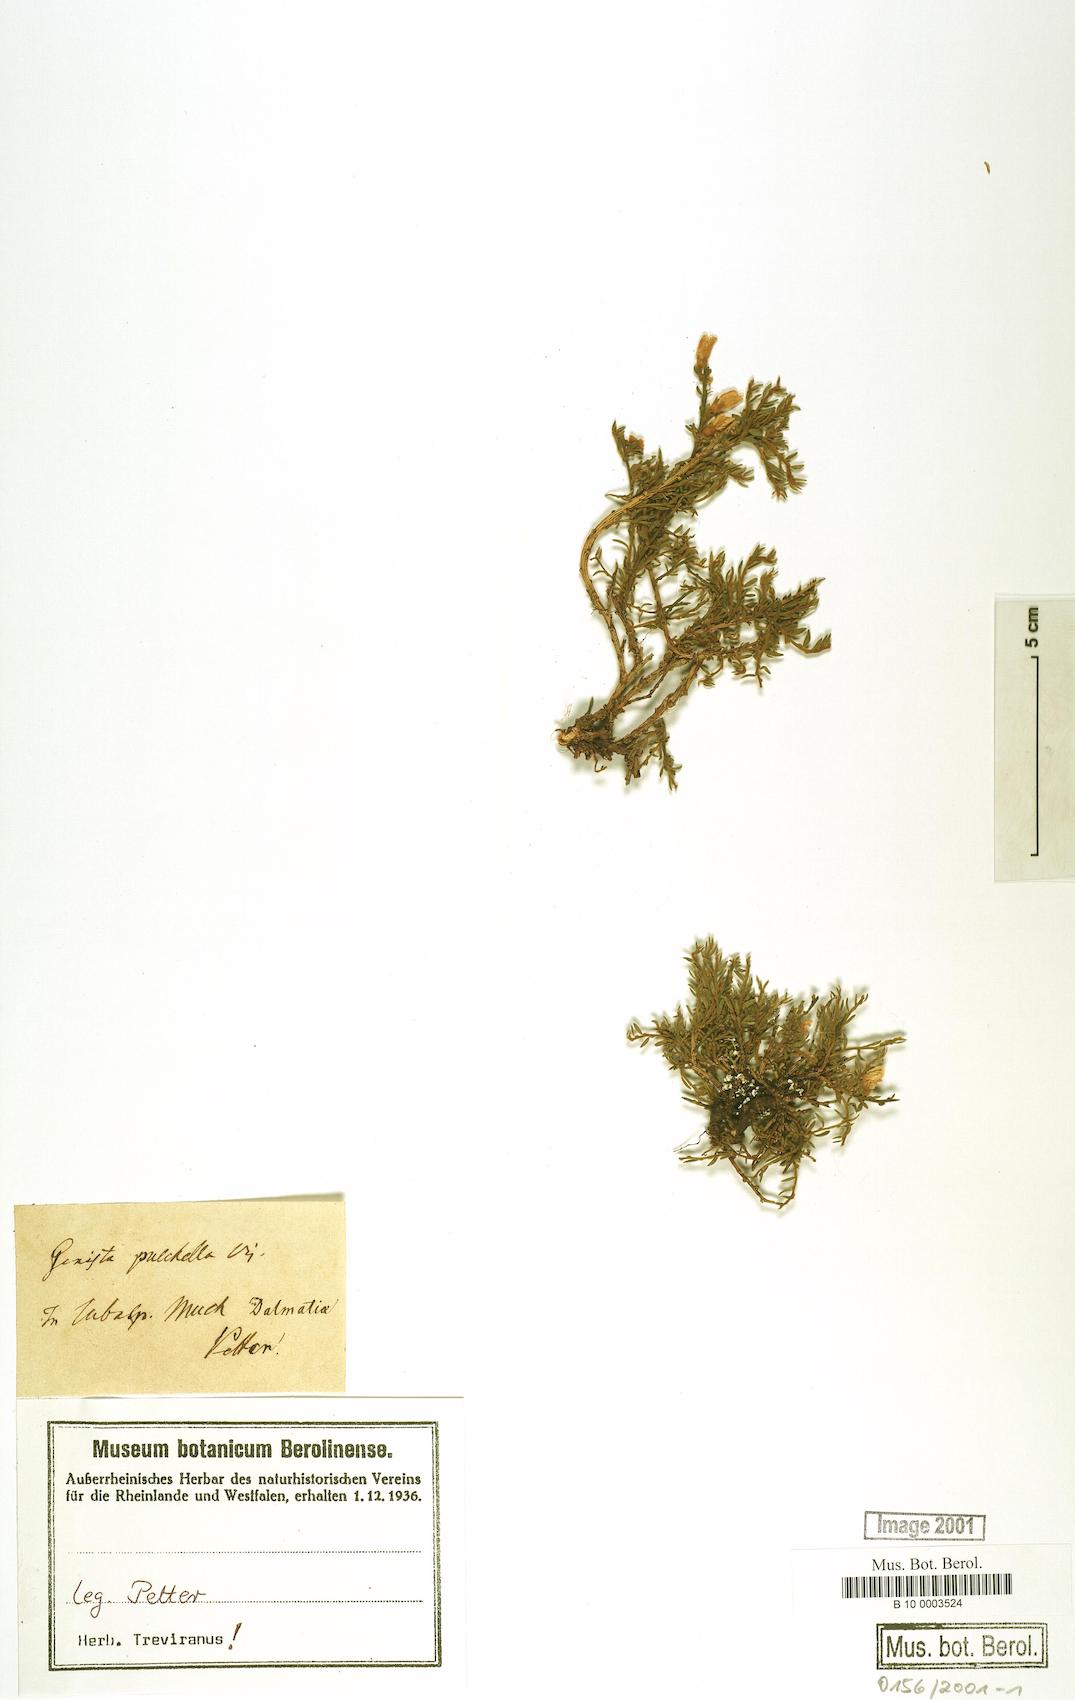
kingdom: Plantae
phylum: Tracheophyta
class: Magnoliopsida
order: Fabales
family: Fabaceae
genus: Genista
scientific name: Genista pulchella
